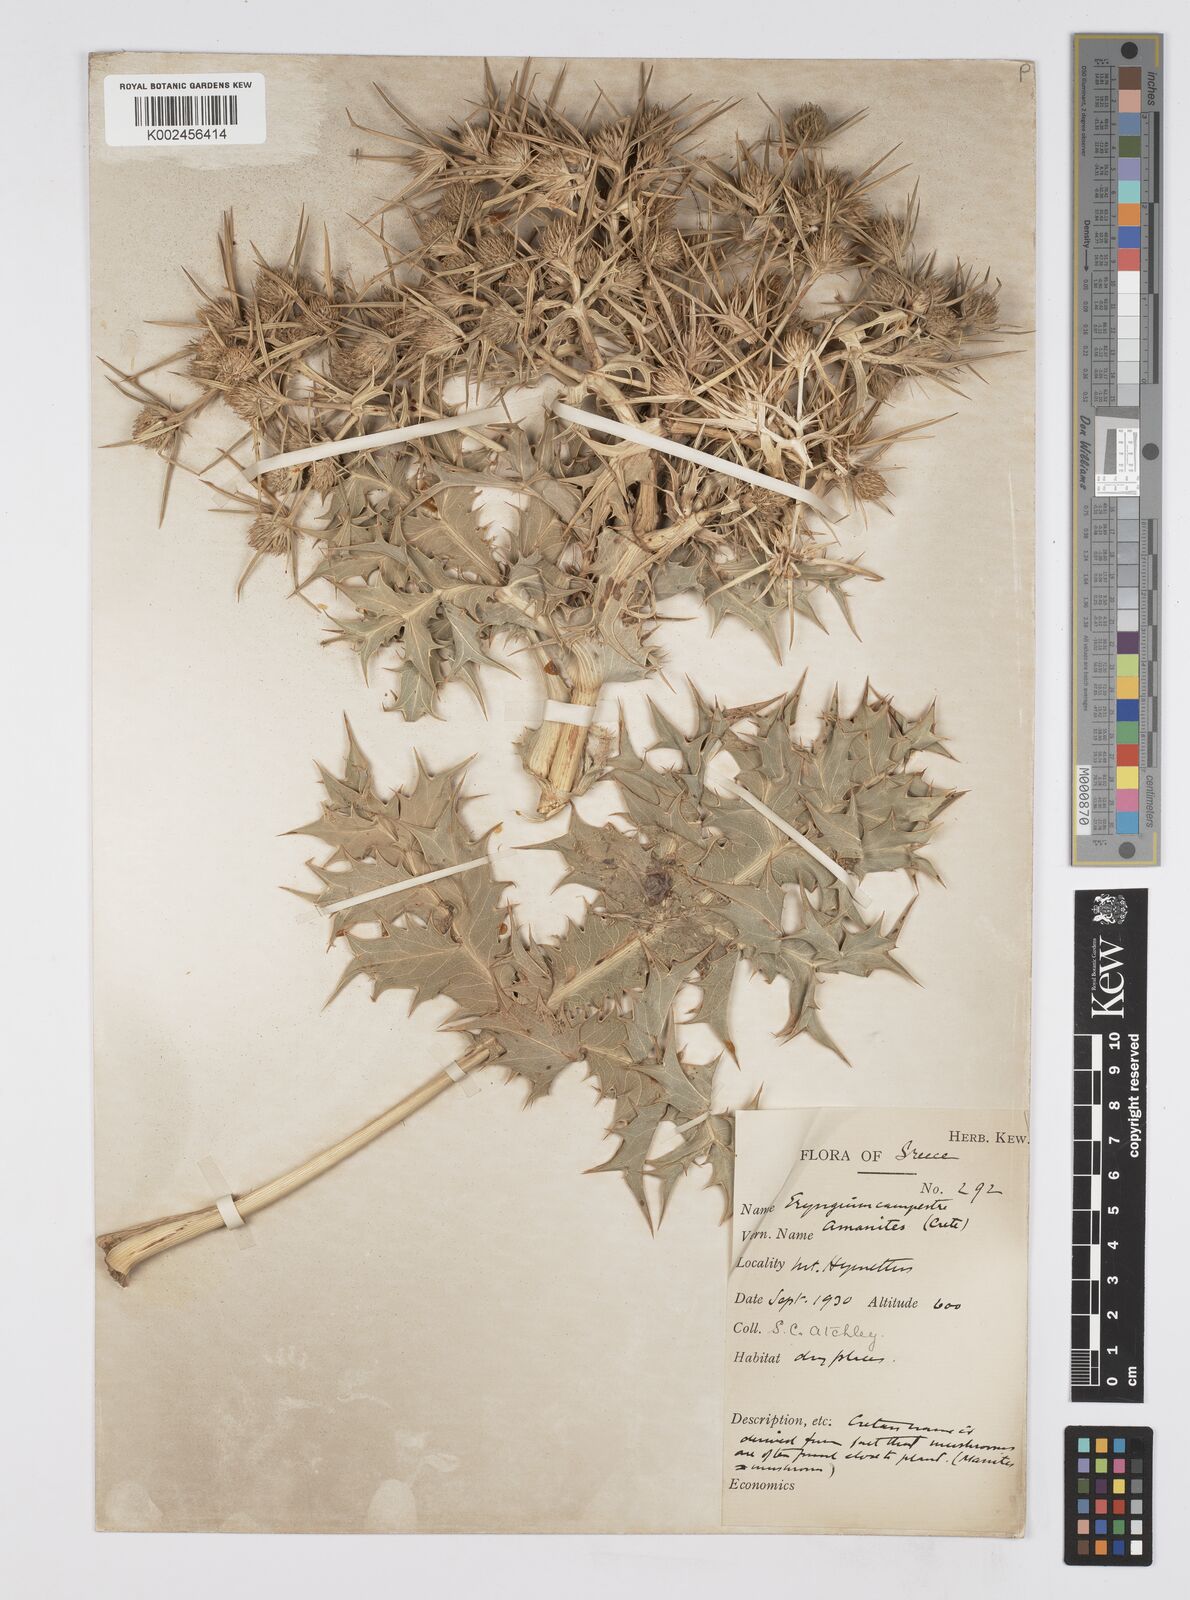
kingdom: Plantae
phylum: Tracheophyta
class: Magnoliopsida
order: Apiales
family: Apiaceae
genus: Eryngium
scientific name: Eryngium campestre
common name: Field eryngo
